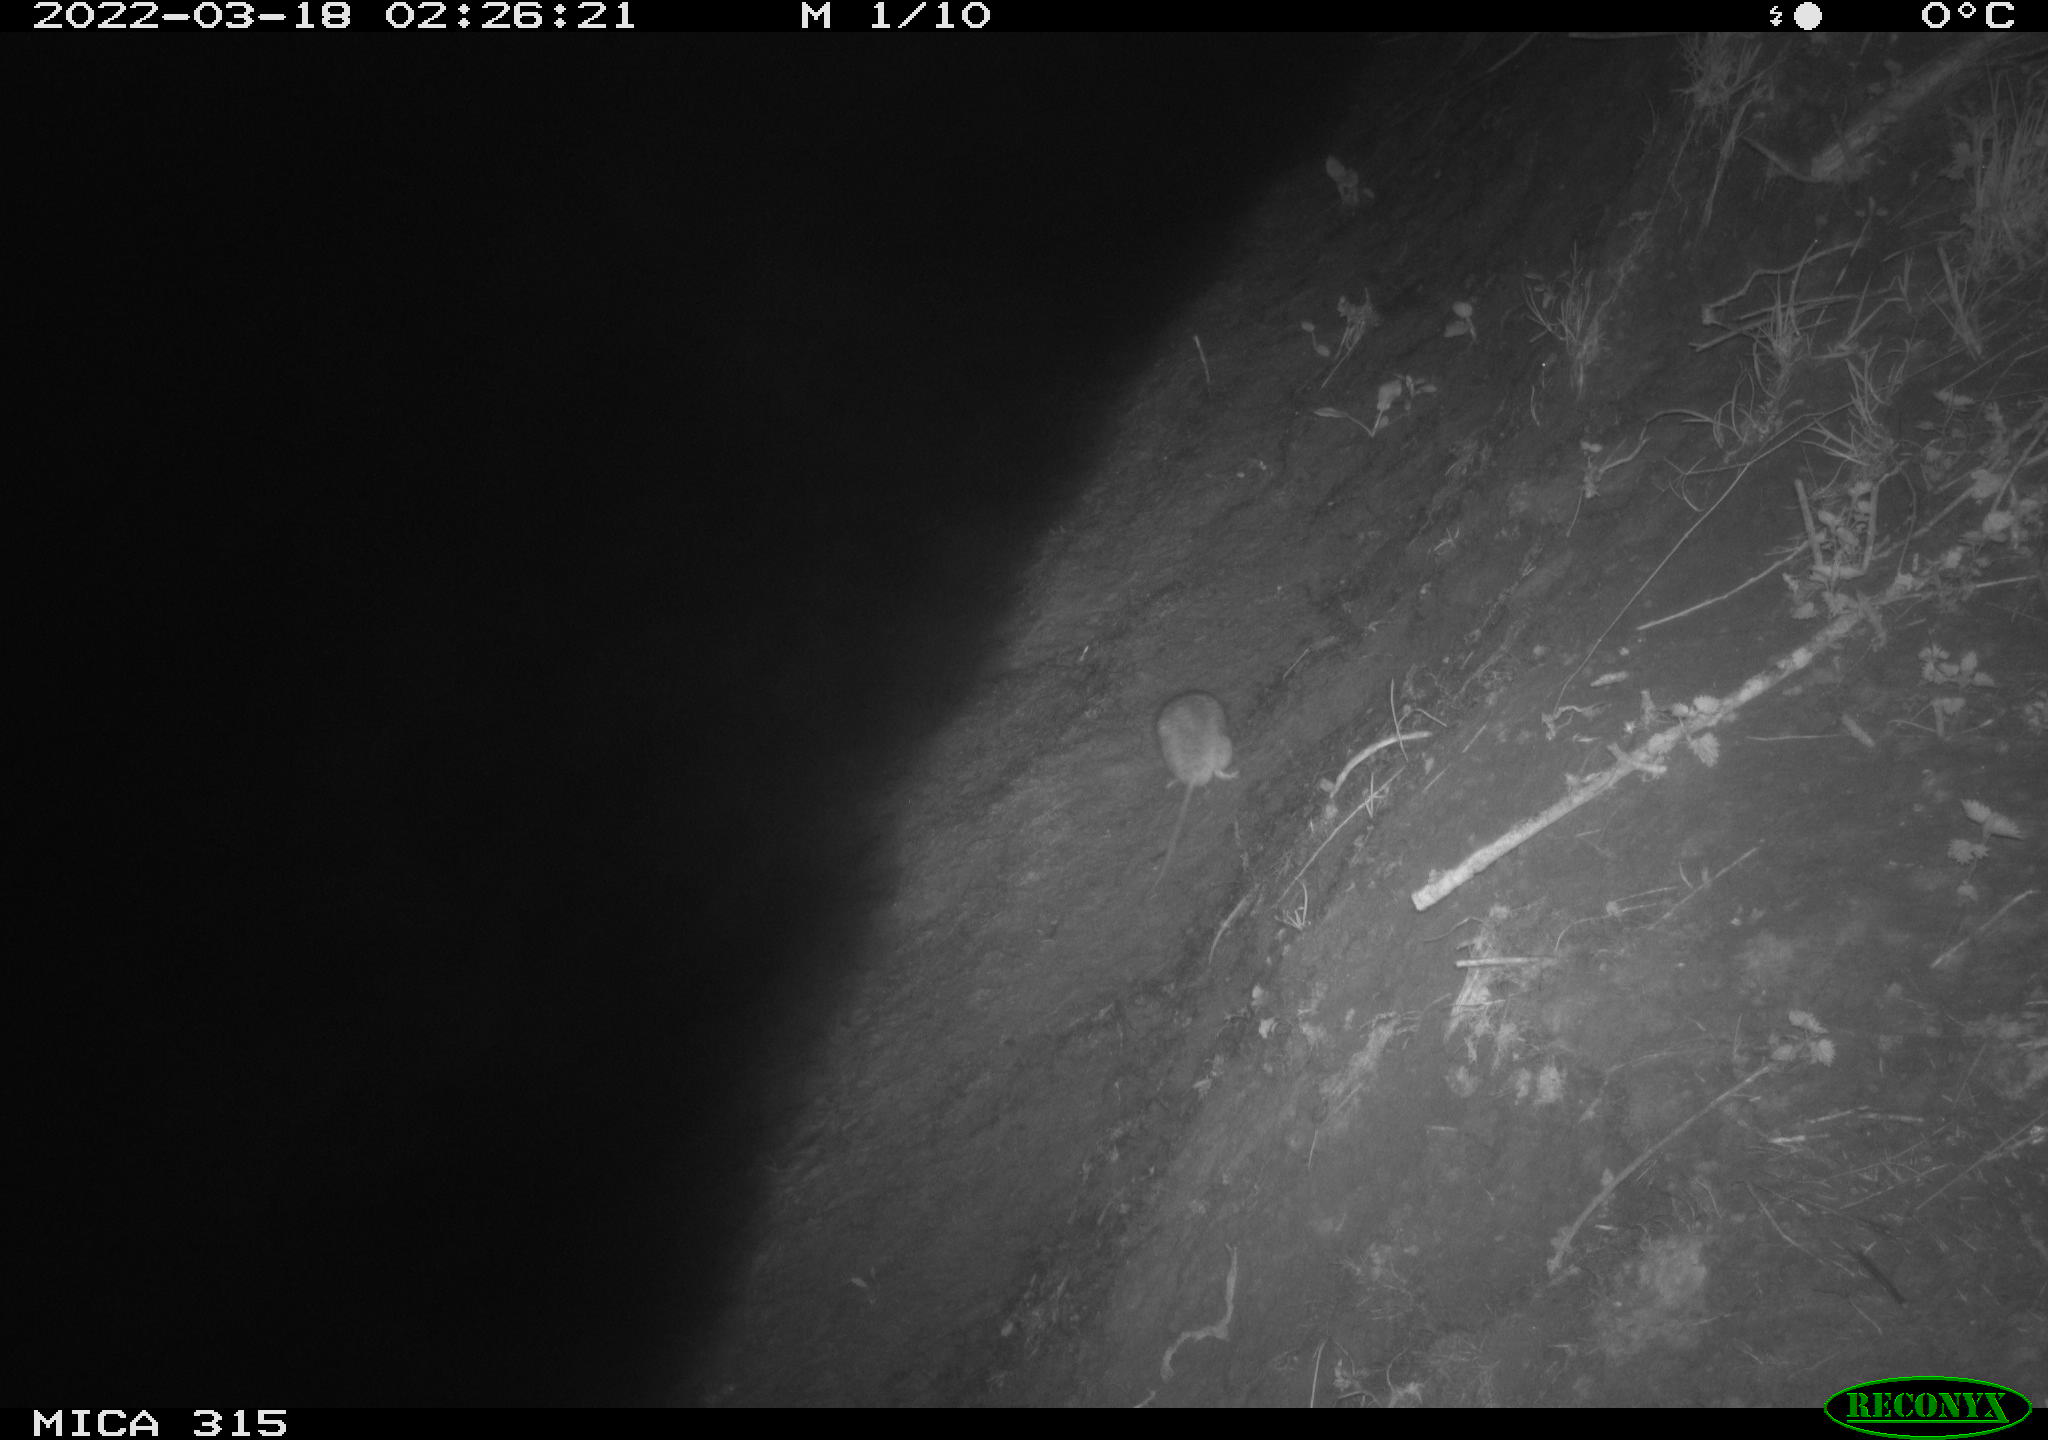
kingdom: Animalia
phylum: Chordata
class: Mammalia
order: Rodentia
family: Muridae
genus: Rattus
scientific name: Rattus norvegicus
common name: Brown rat
